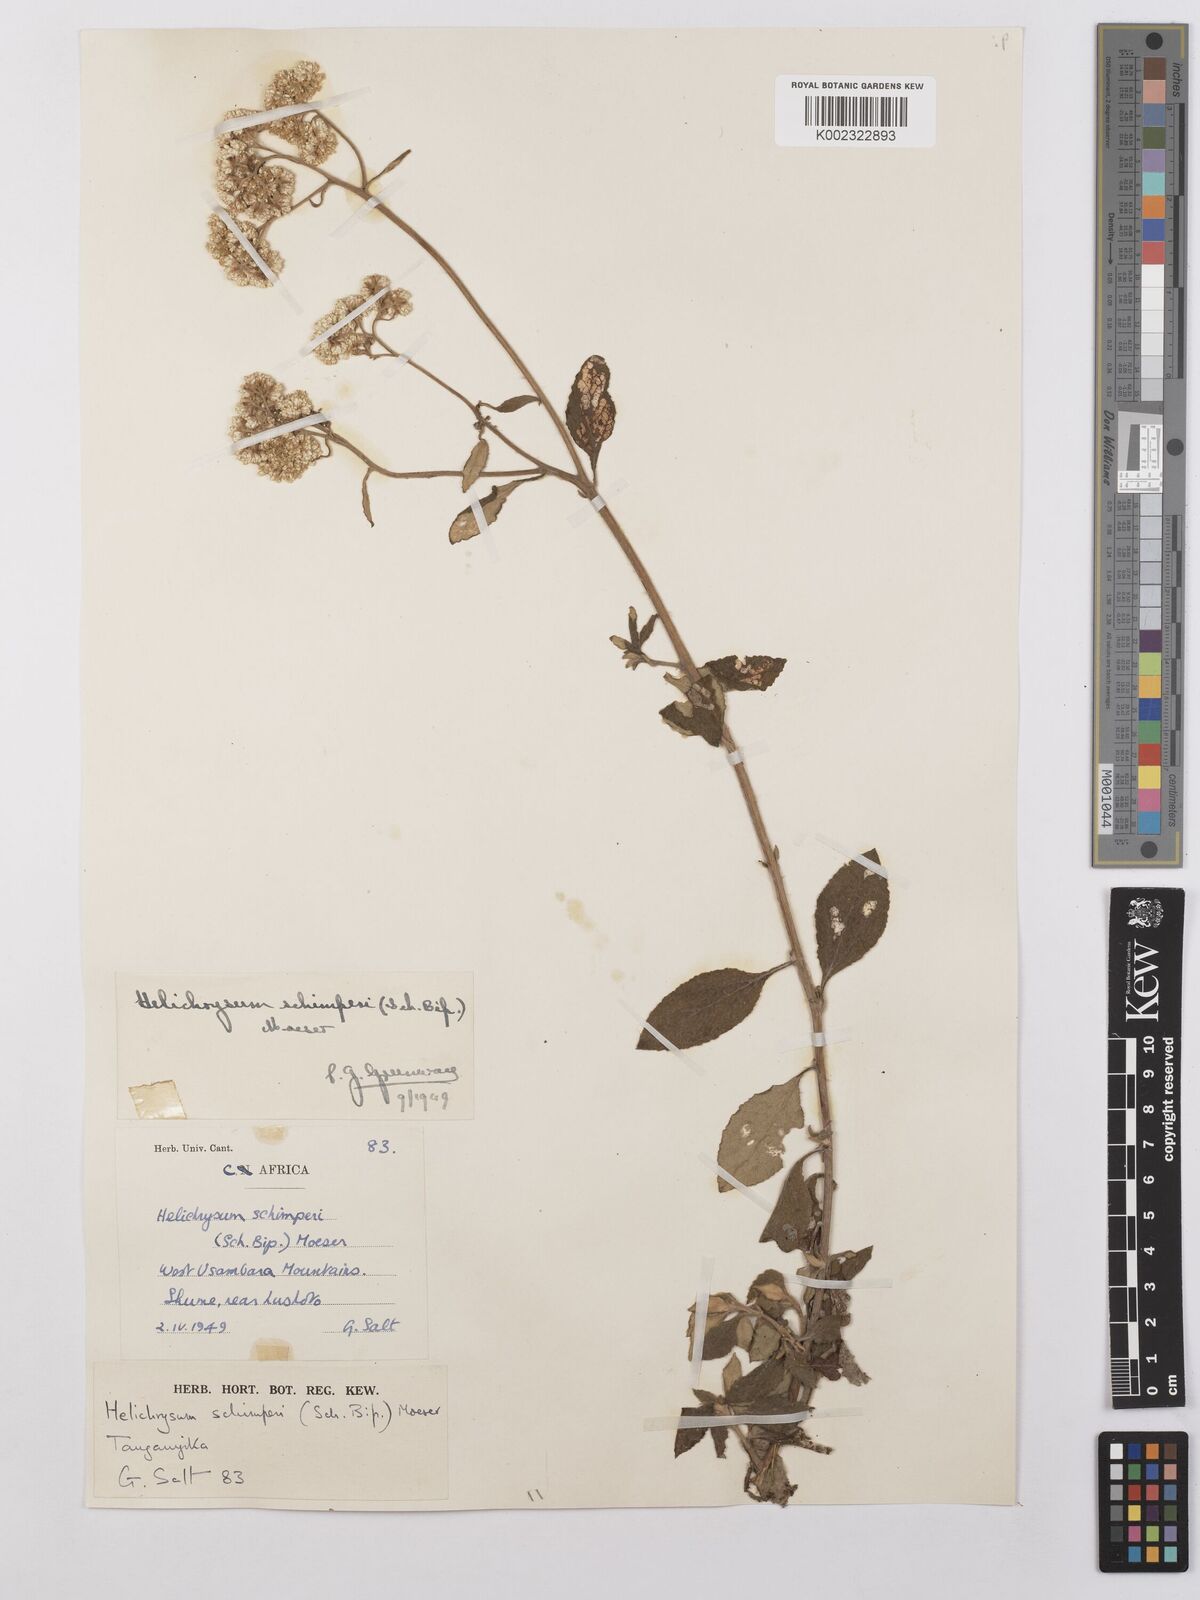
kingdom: Plantae
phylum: Tracheophyta
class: Magnoliopsida
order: Asterales
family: Asteraceae
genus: Helichrysum
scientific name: Helichrysum schimperi
